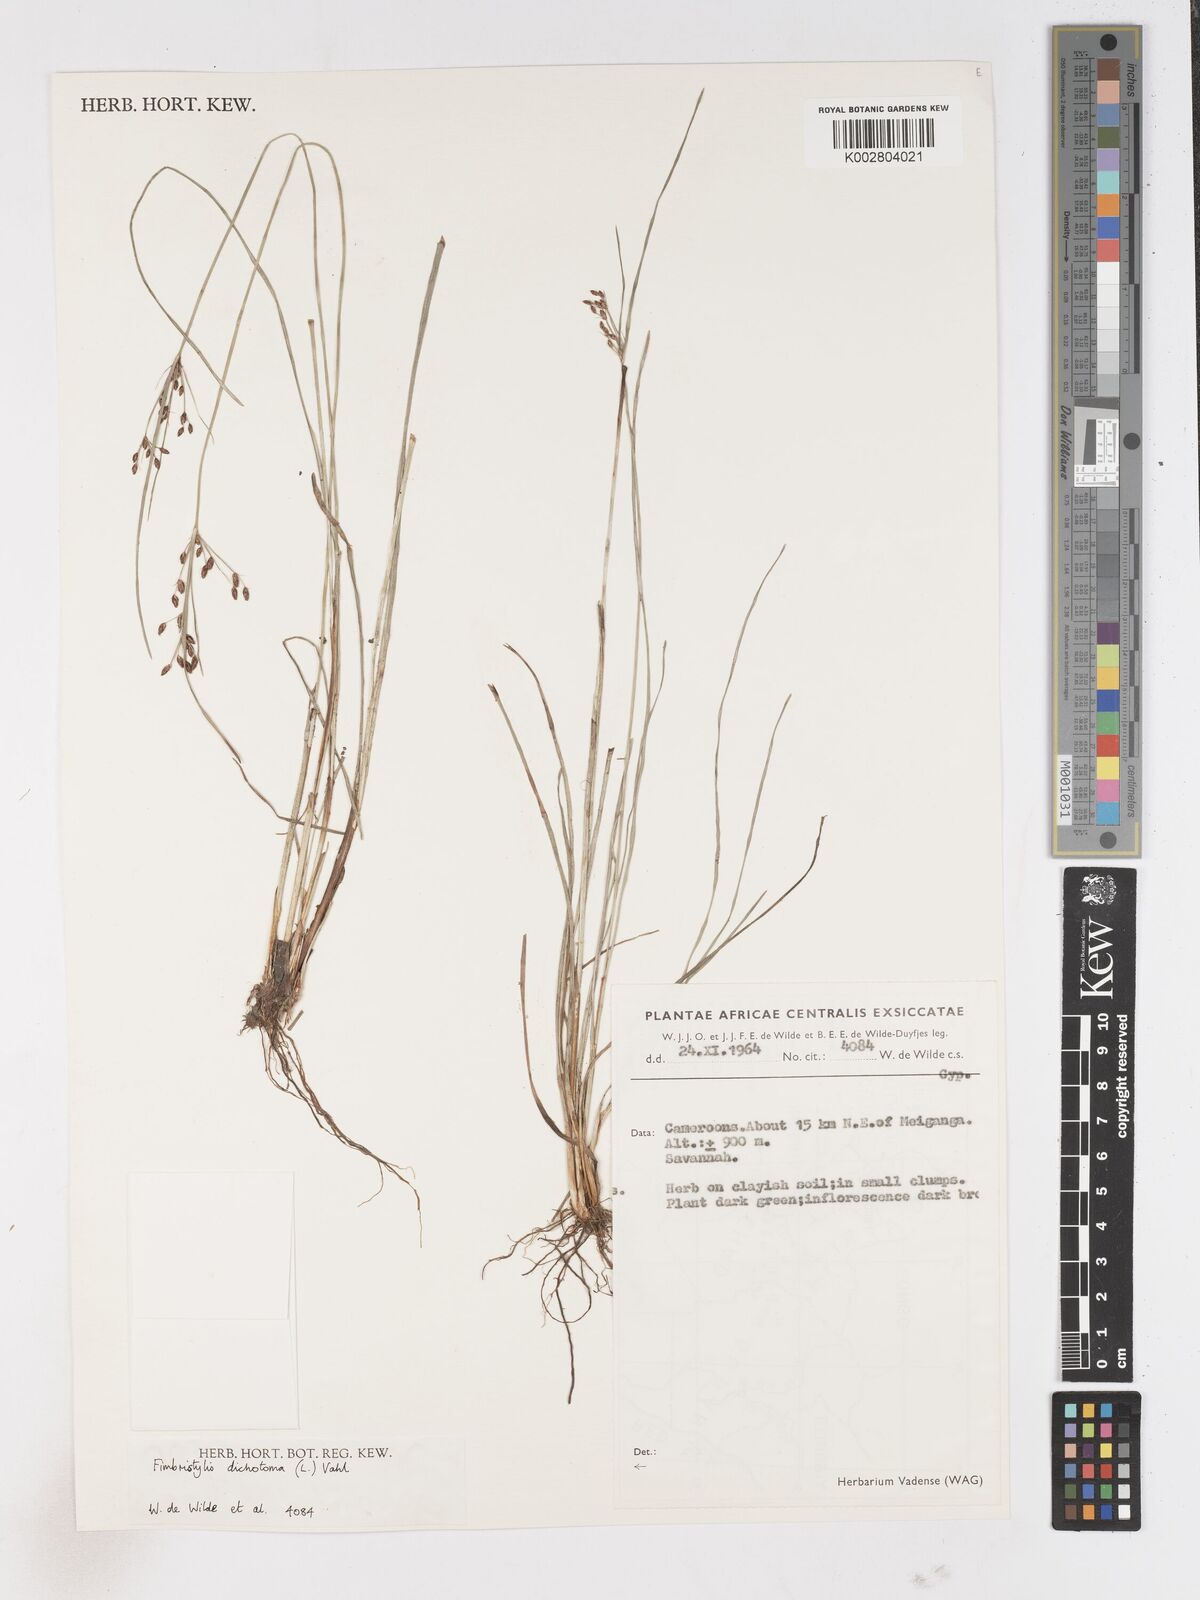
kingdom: Plantae
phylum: Tracheophyta
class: Liliopsida
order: Poales
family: Cyperaceae
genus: Fimbristylis
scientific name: Fimbristylis dichotoma
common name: Forked fimbry
